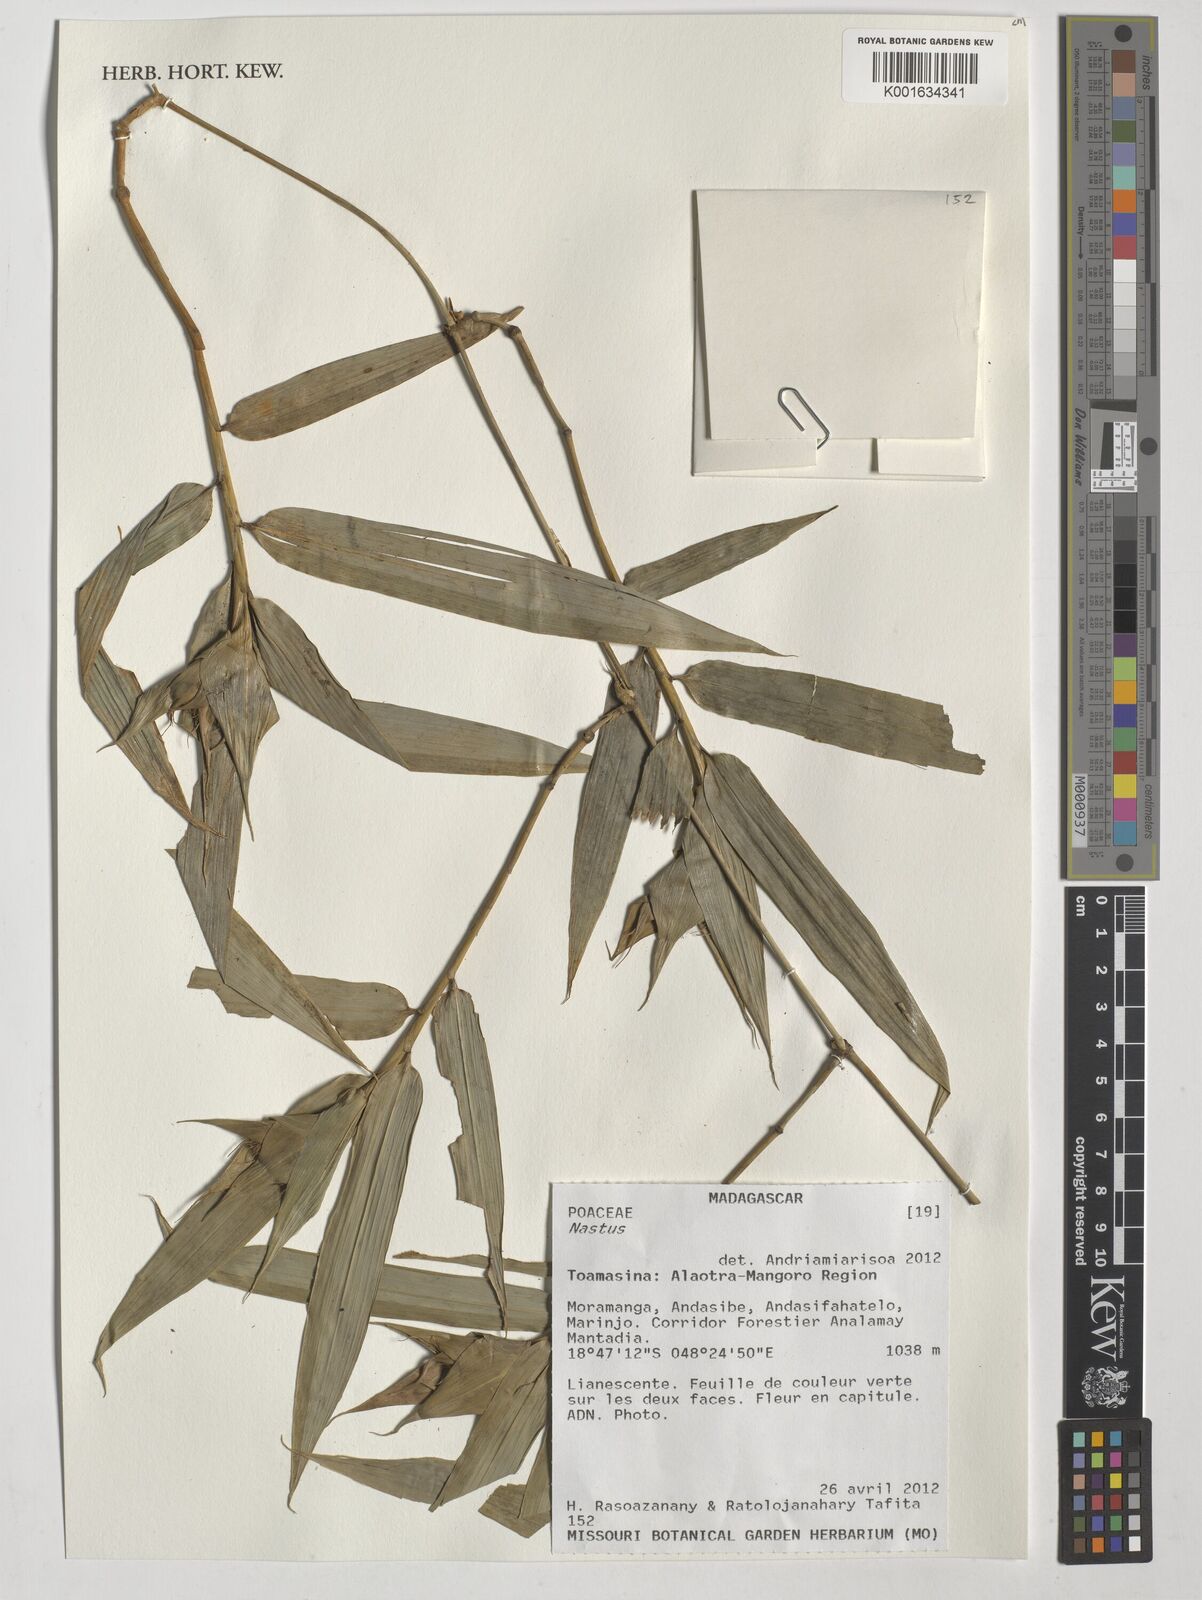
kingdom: Plantae
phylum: Tracheophyta
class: Liliopsida
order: Poales
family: Poaceae
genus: Nastus
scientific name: Nastus
